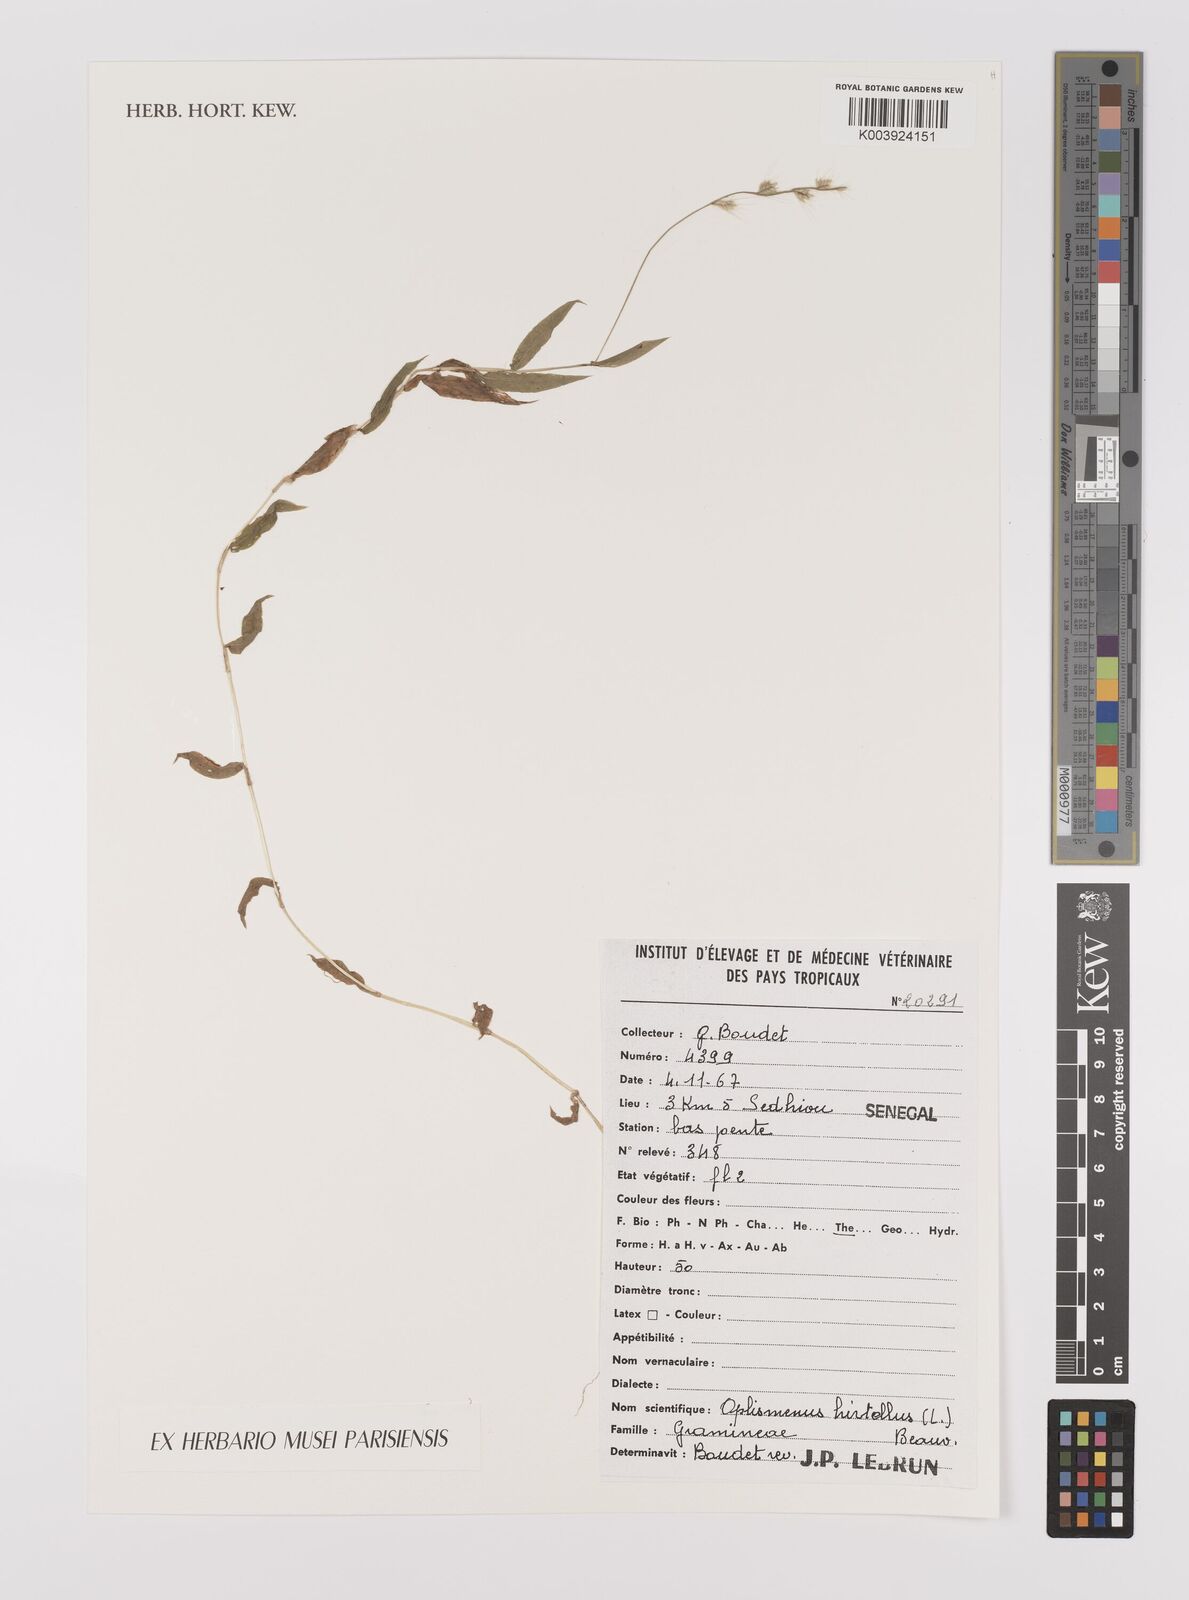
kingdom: Plantae
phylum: Tracheophyta
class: Liliopsida
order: Poales
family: Poaceae
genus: Oplismenus
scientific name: Oplismenus hirtellus
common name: Basketgrass
